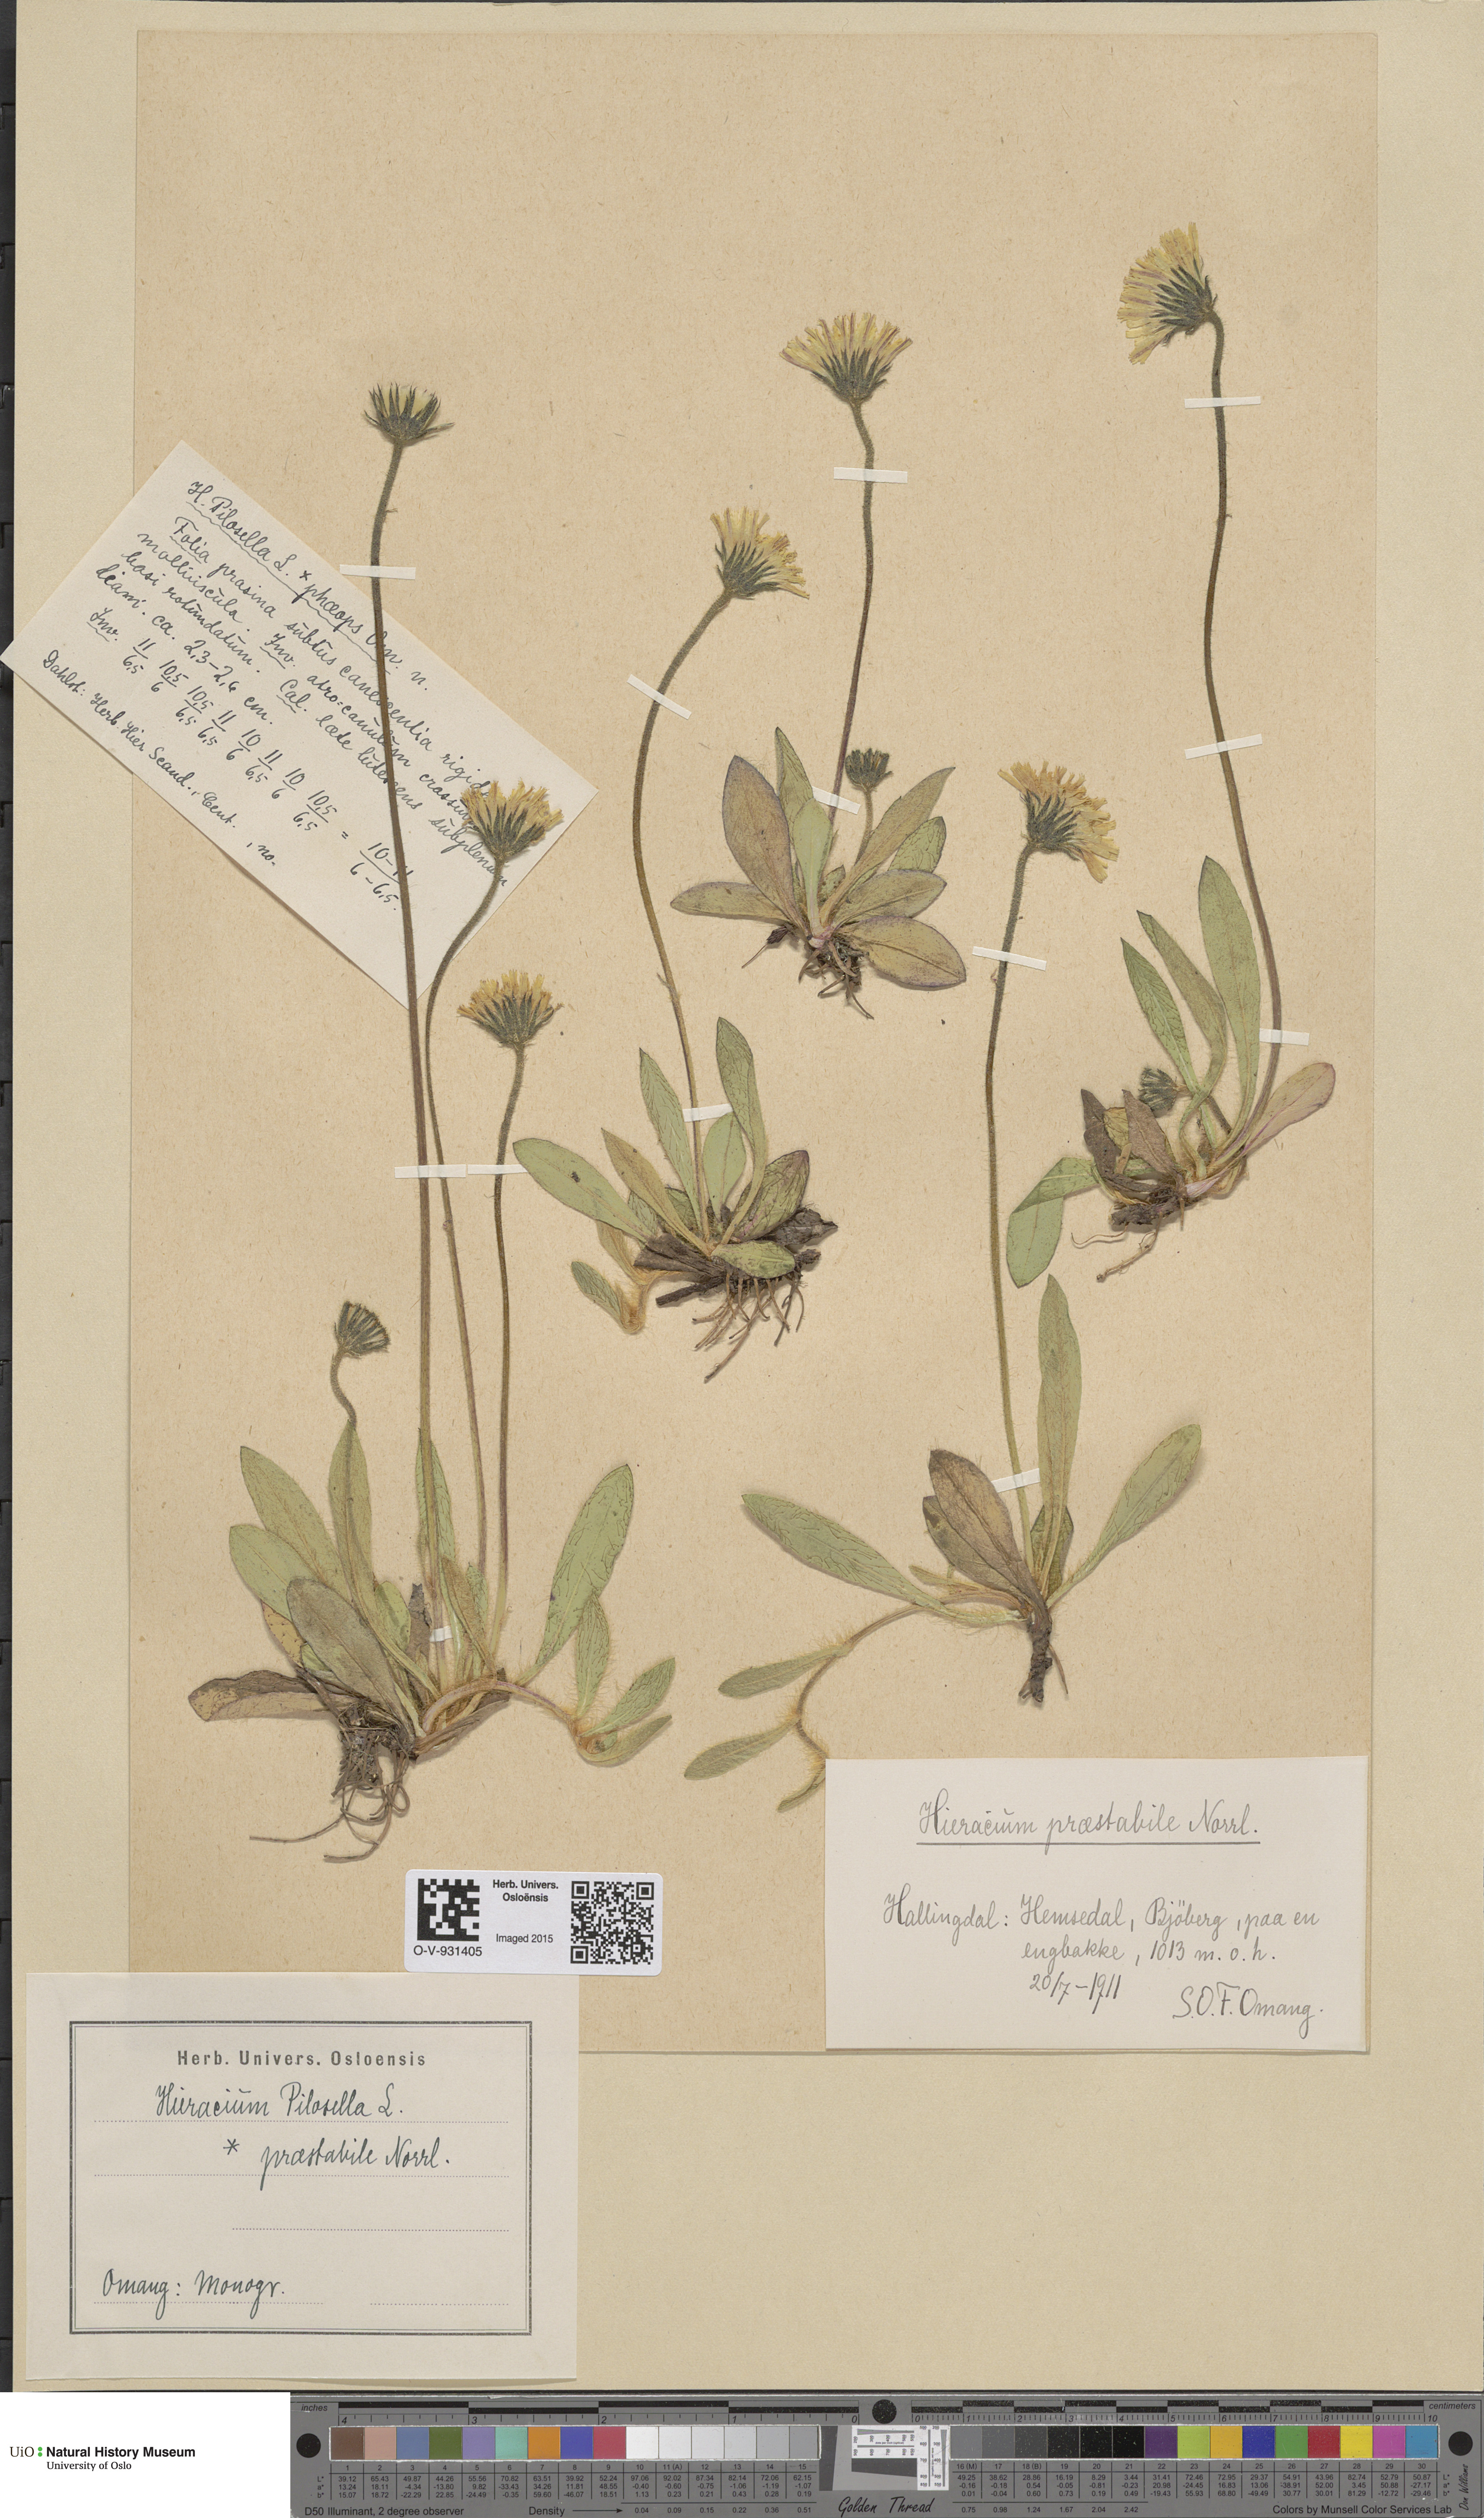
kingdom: Plantae
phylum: Tracheophyta
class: Magnoliopsida
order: Asterales
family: Asteraceae
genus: Pilosella
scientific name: Pilosella officinarum
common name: Mouse-ear hawkweed
